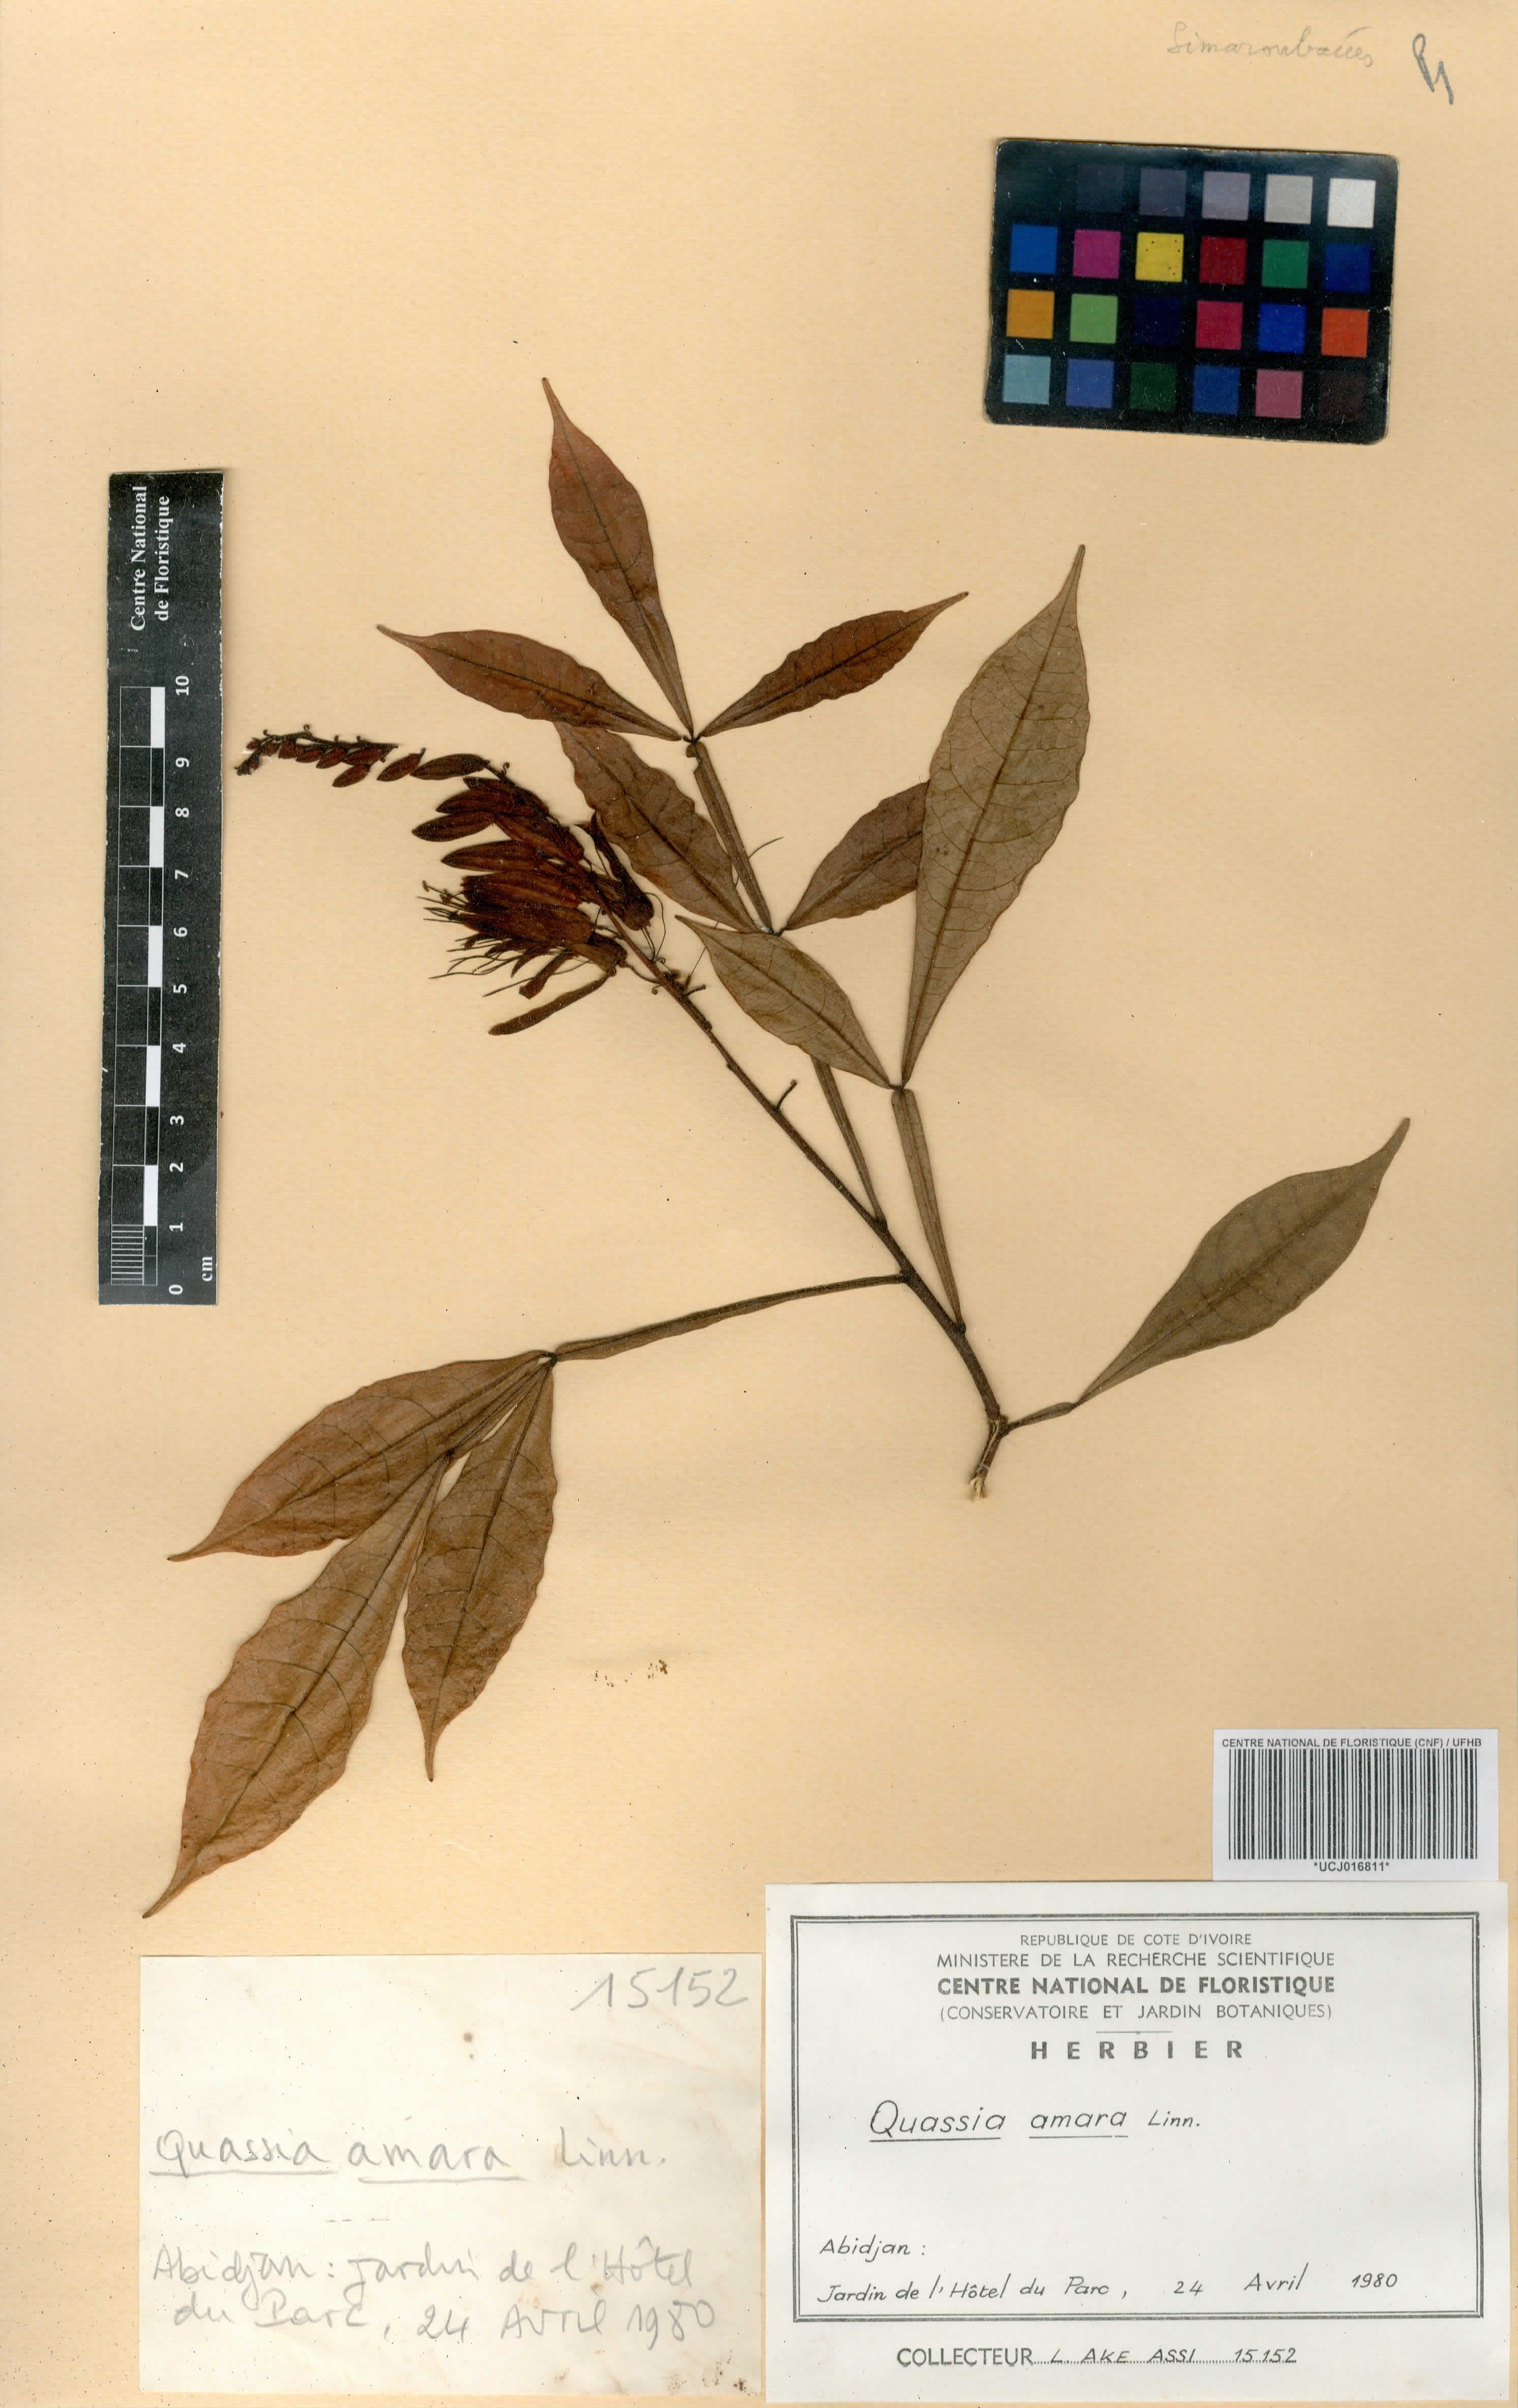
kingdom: Plantae
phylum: Tracheophyta
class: Magnoliopsida
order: Sapindales
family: Simaroubaceae
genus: Quassia
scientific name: Quassia amara
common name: Quassia
